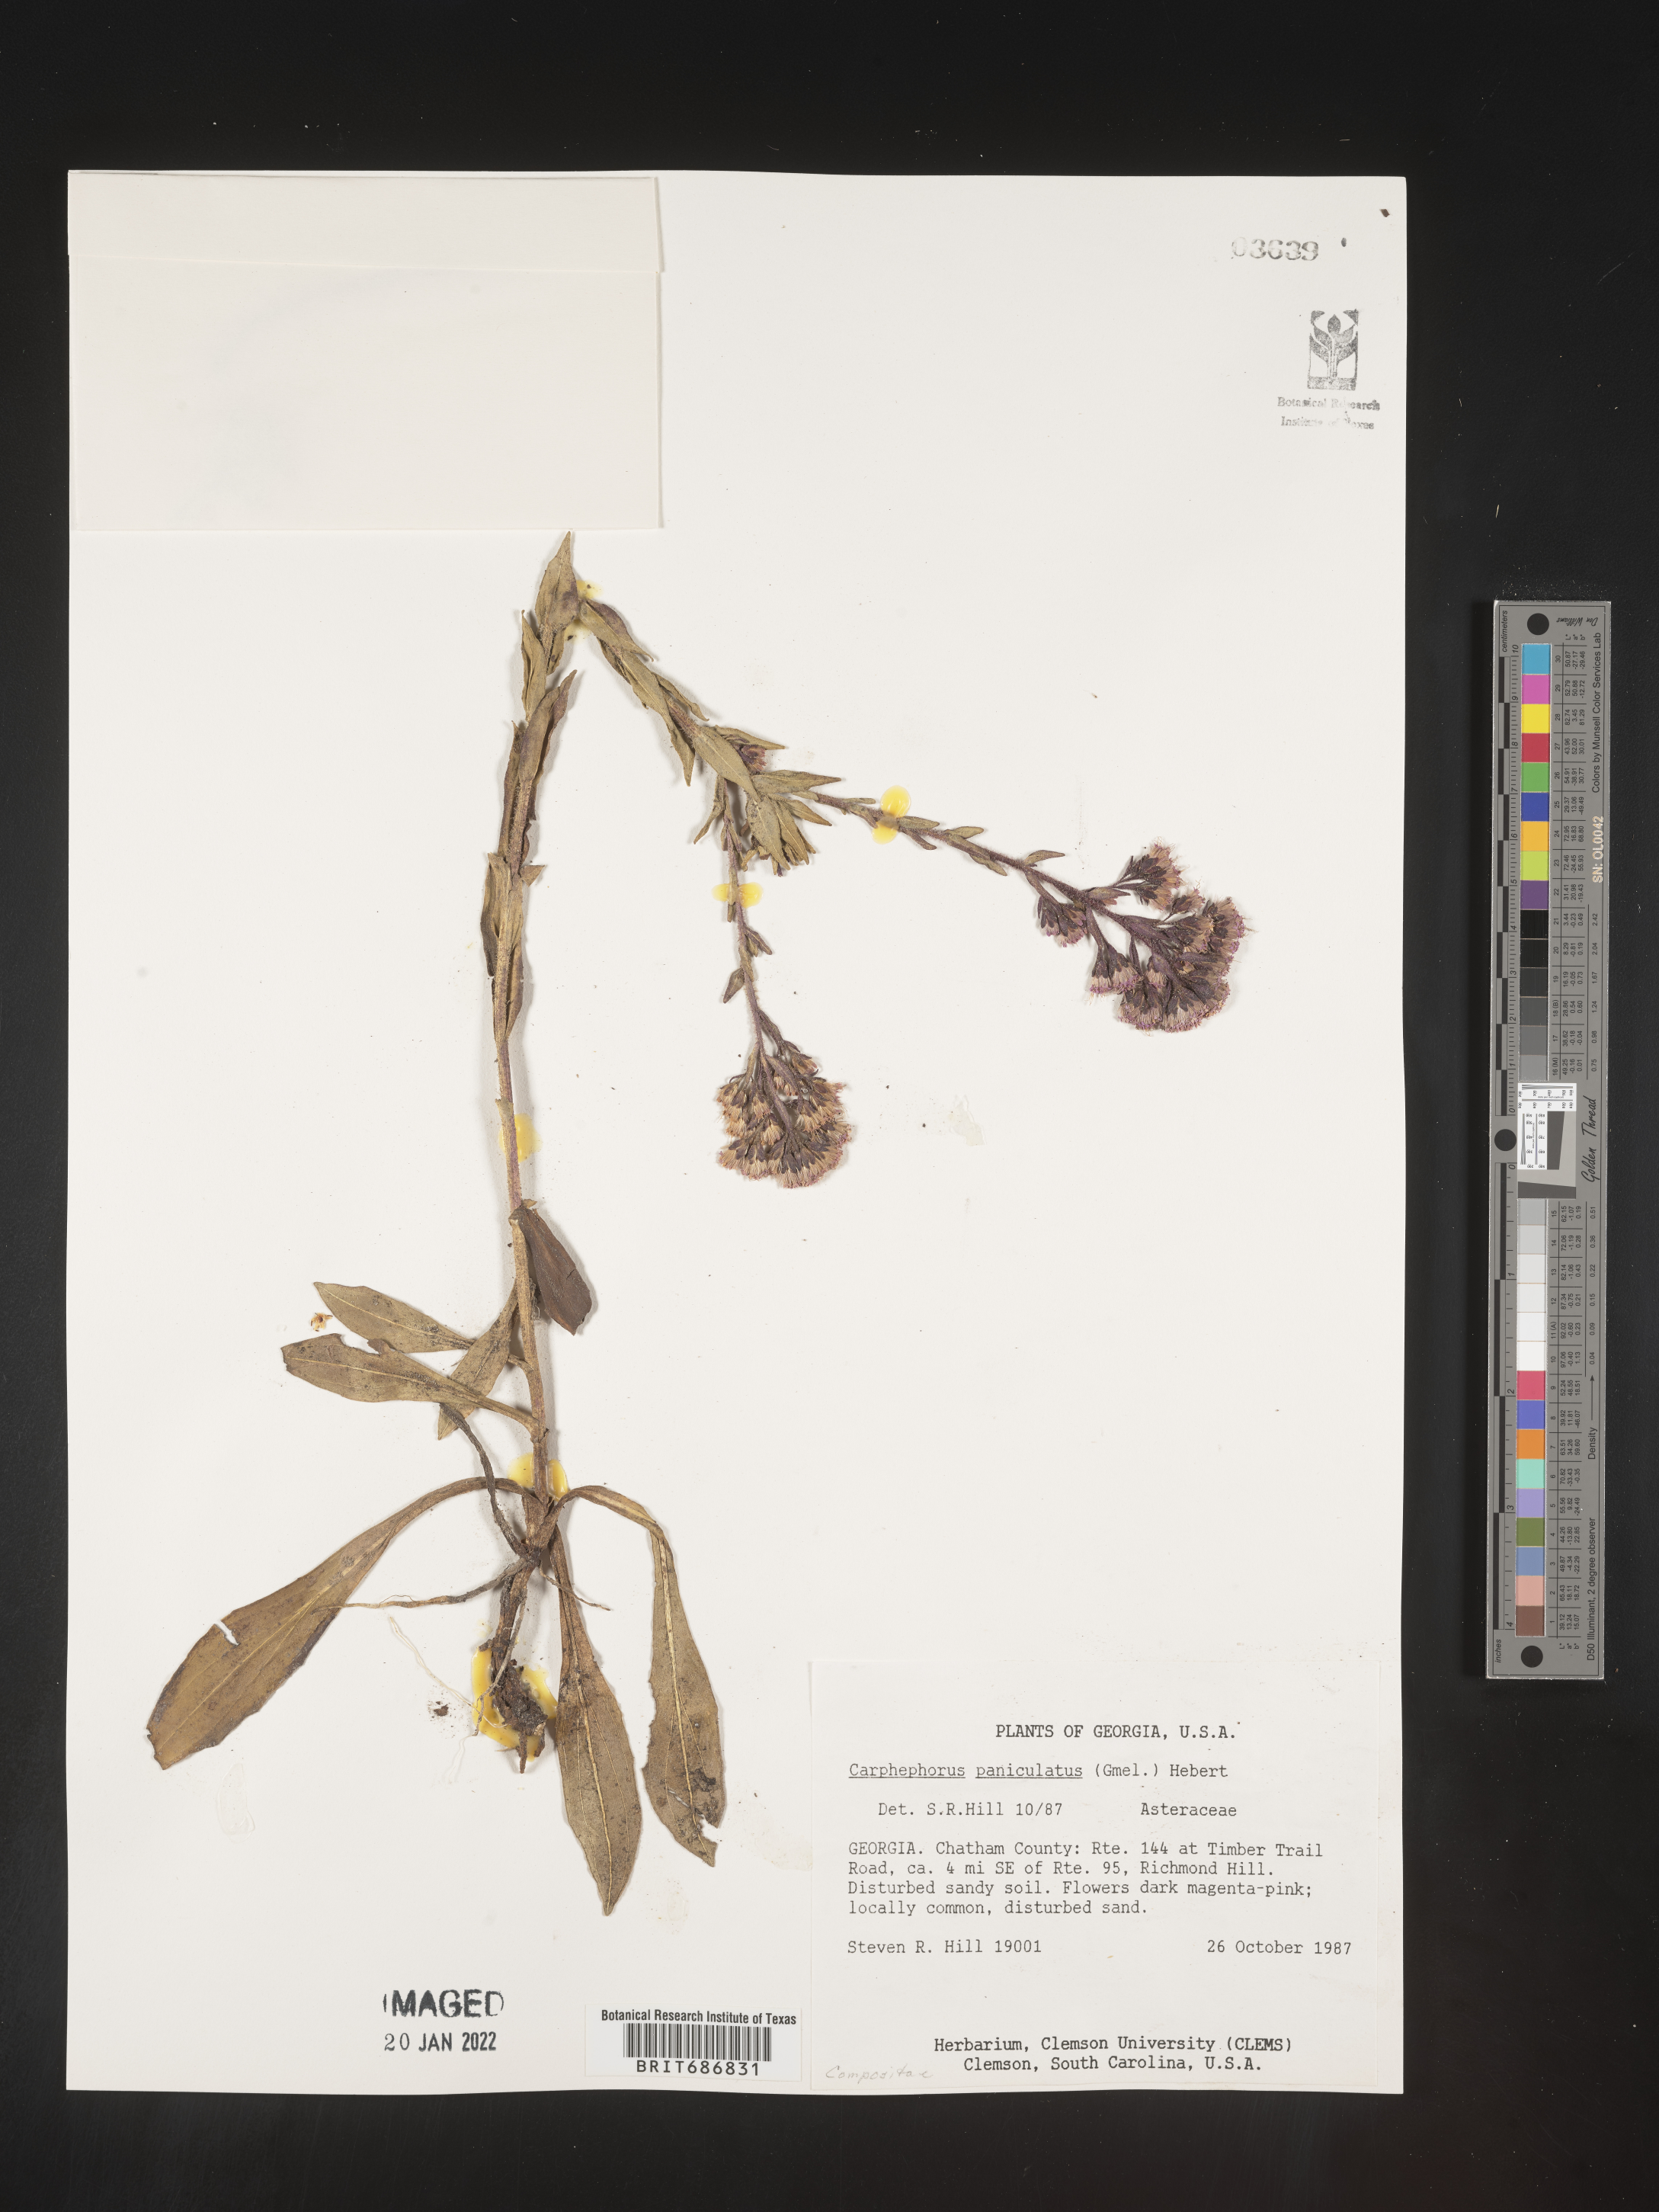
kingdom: Plantae
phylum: Tracheophyta
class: Magnoliopsida
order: Asterales
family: Asteraceae
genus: Carphephorus
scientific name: Carphephorus paniculatus
